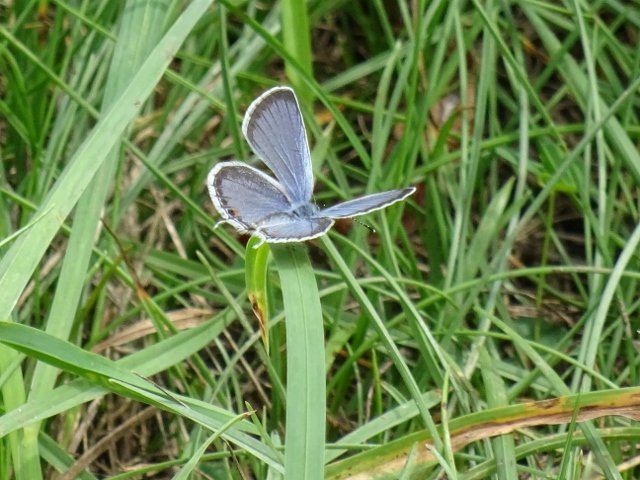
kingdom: Animalia
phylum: Arthropoda
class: Insecta
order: Lepidoptera
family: Lycaenidae
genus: Elkalyce
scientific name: Elkalyce comyntas
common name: Eastern Tailed-Blue
